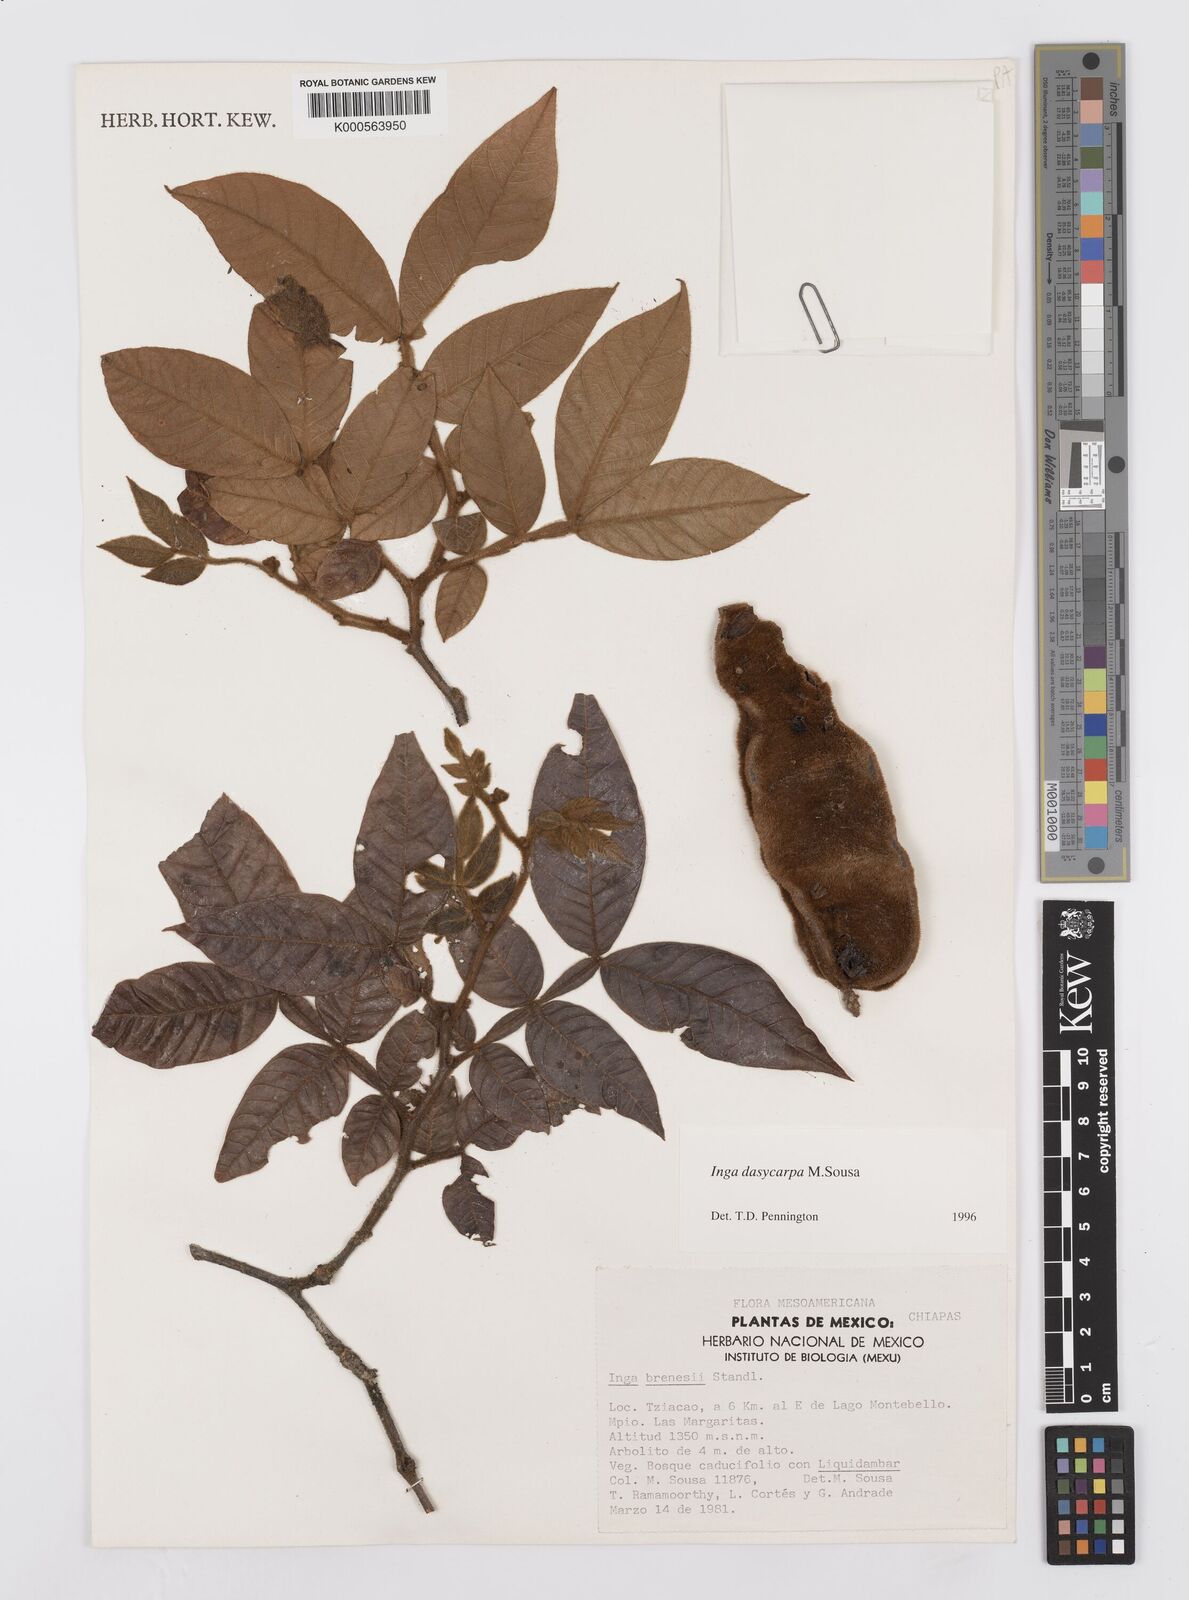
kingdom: Plantae
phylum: Tracheophyta
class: Magnoliopsida
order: Fabales
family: Fabaceae
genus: Inga
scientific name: Inga dasycarpa
